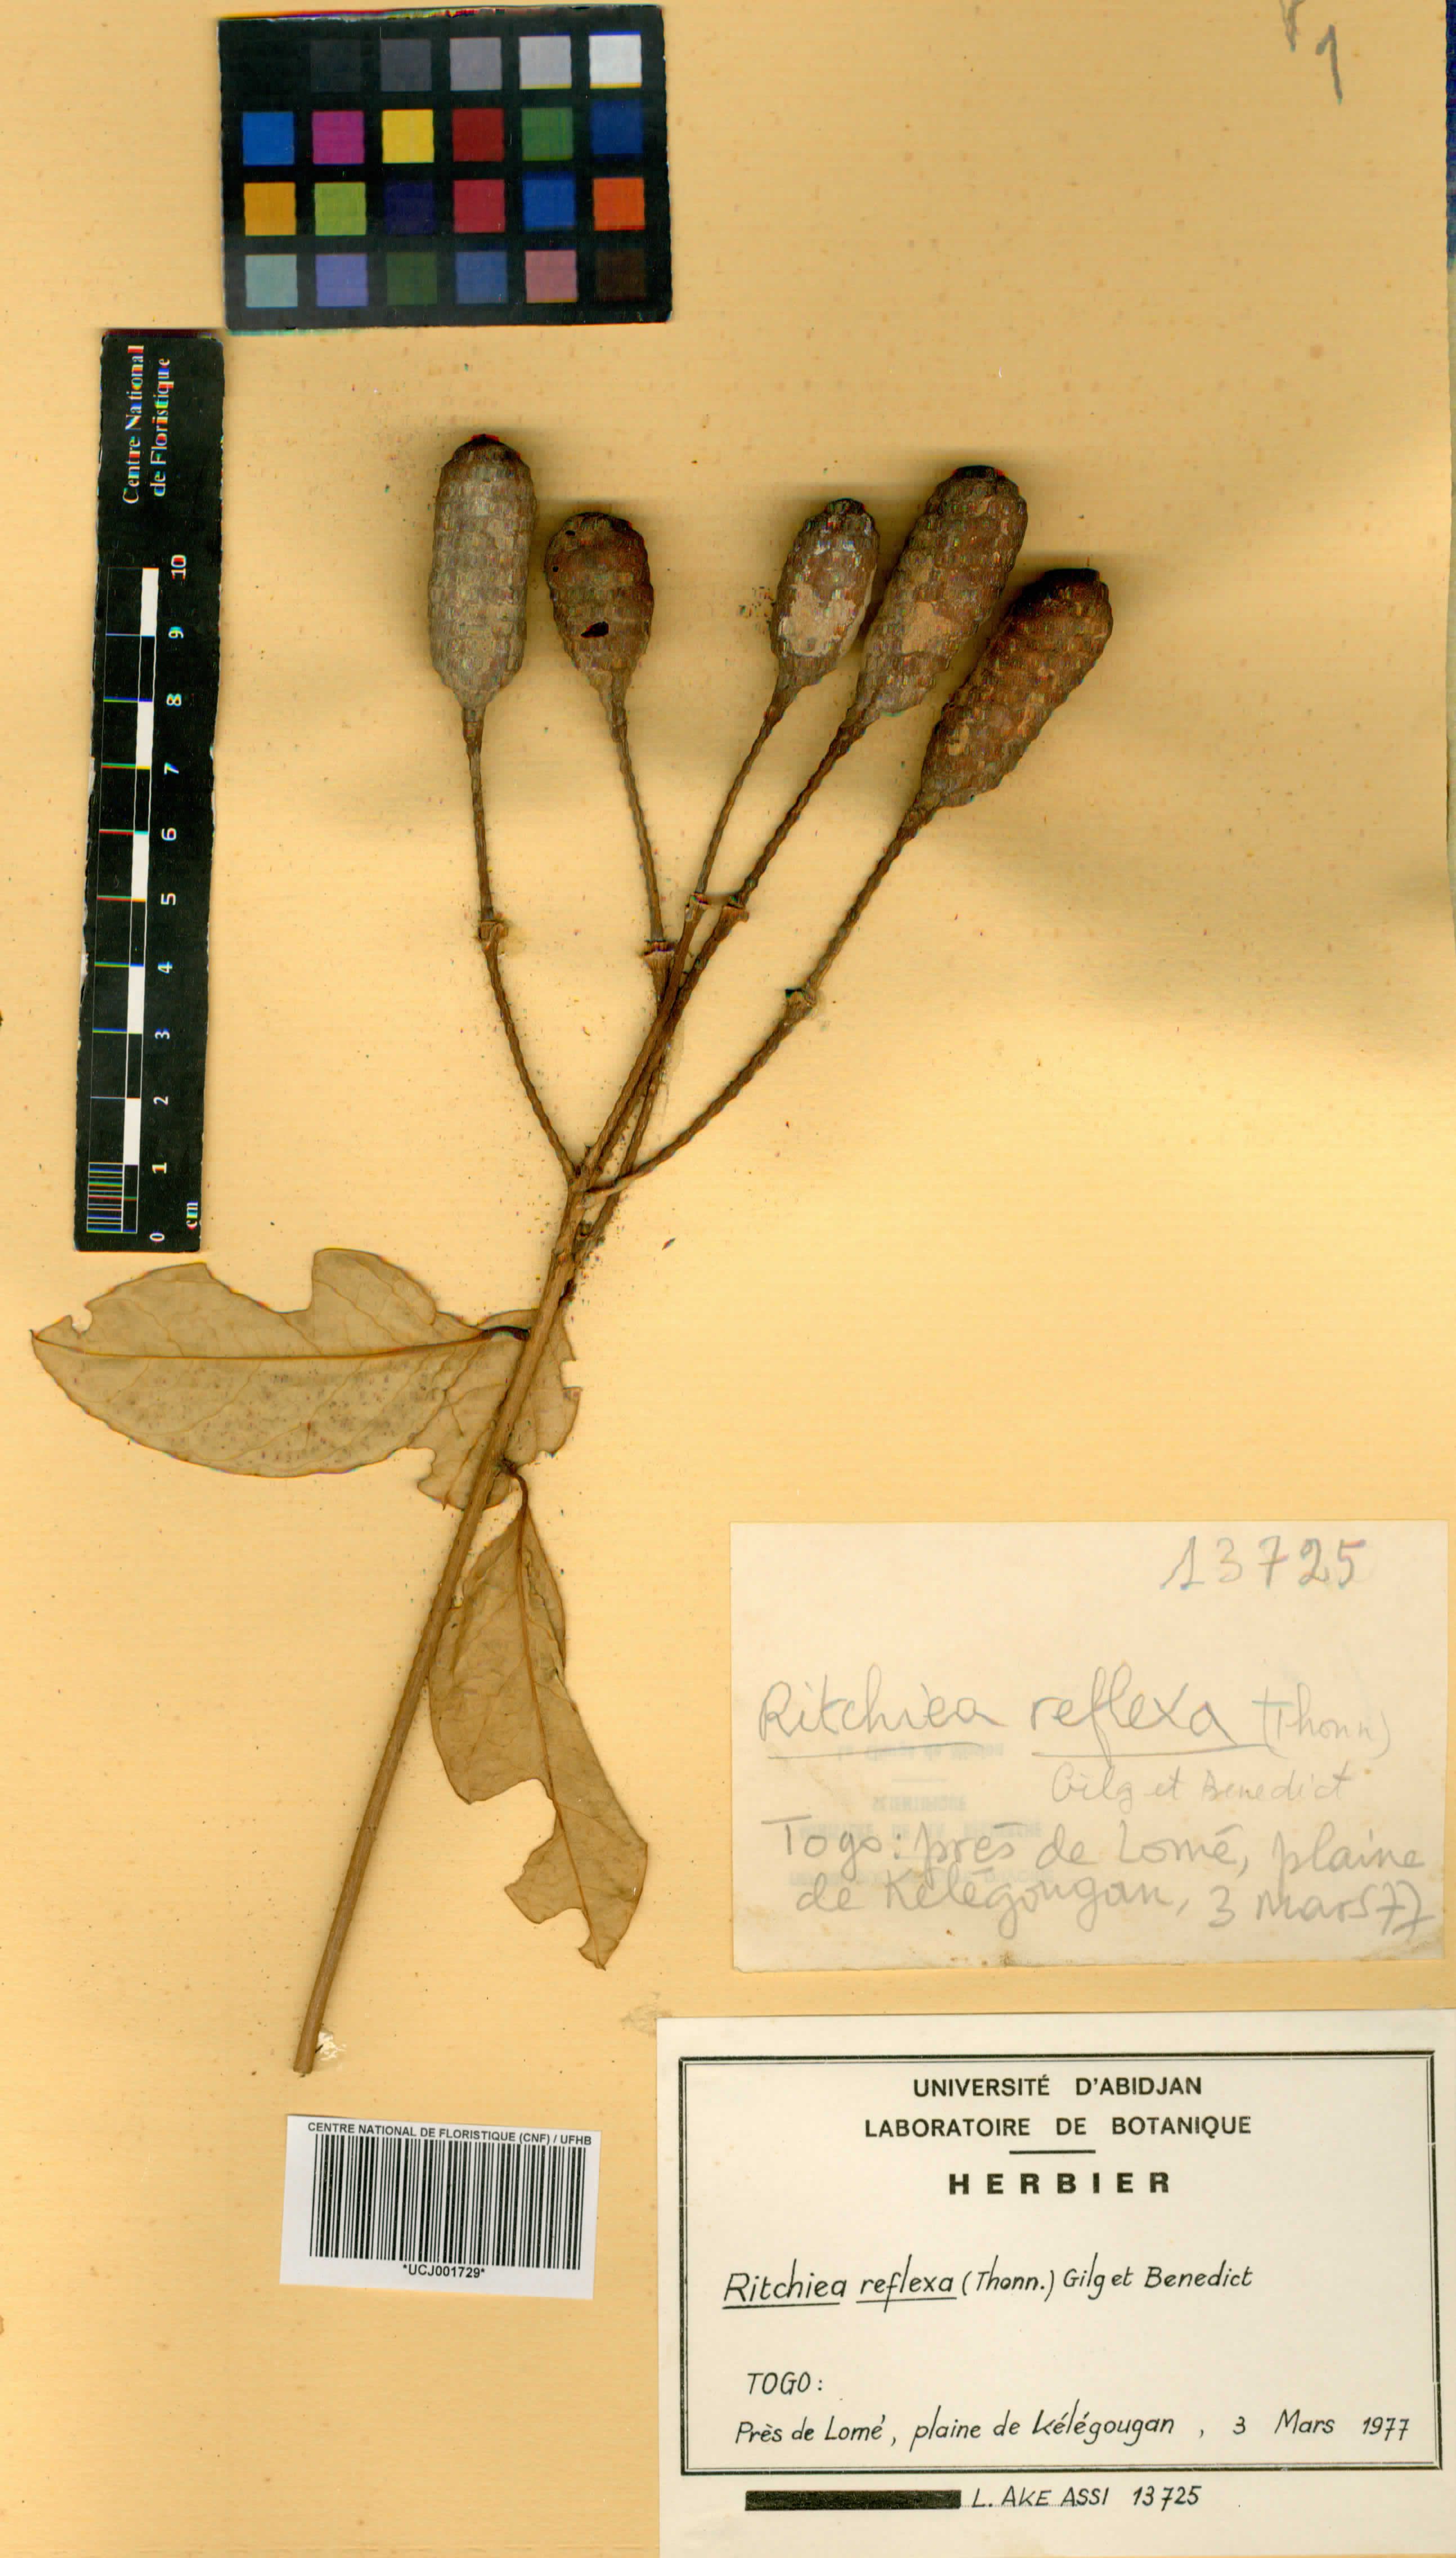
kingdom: Plantae
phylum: Tracheophyta
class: Magnoliopsida
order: Brassicales
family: Capparaceae
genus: Ritchiea
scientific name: Ritchiea reflexa
